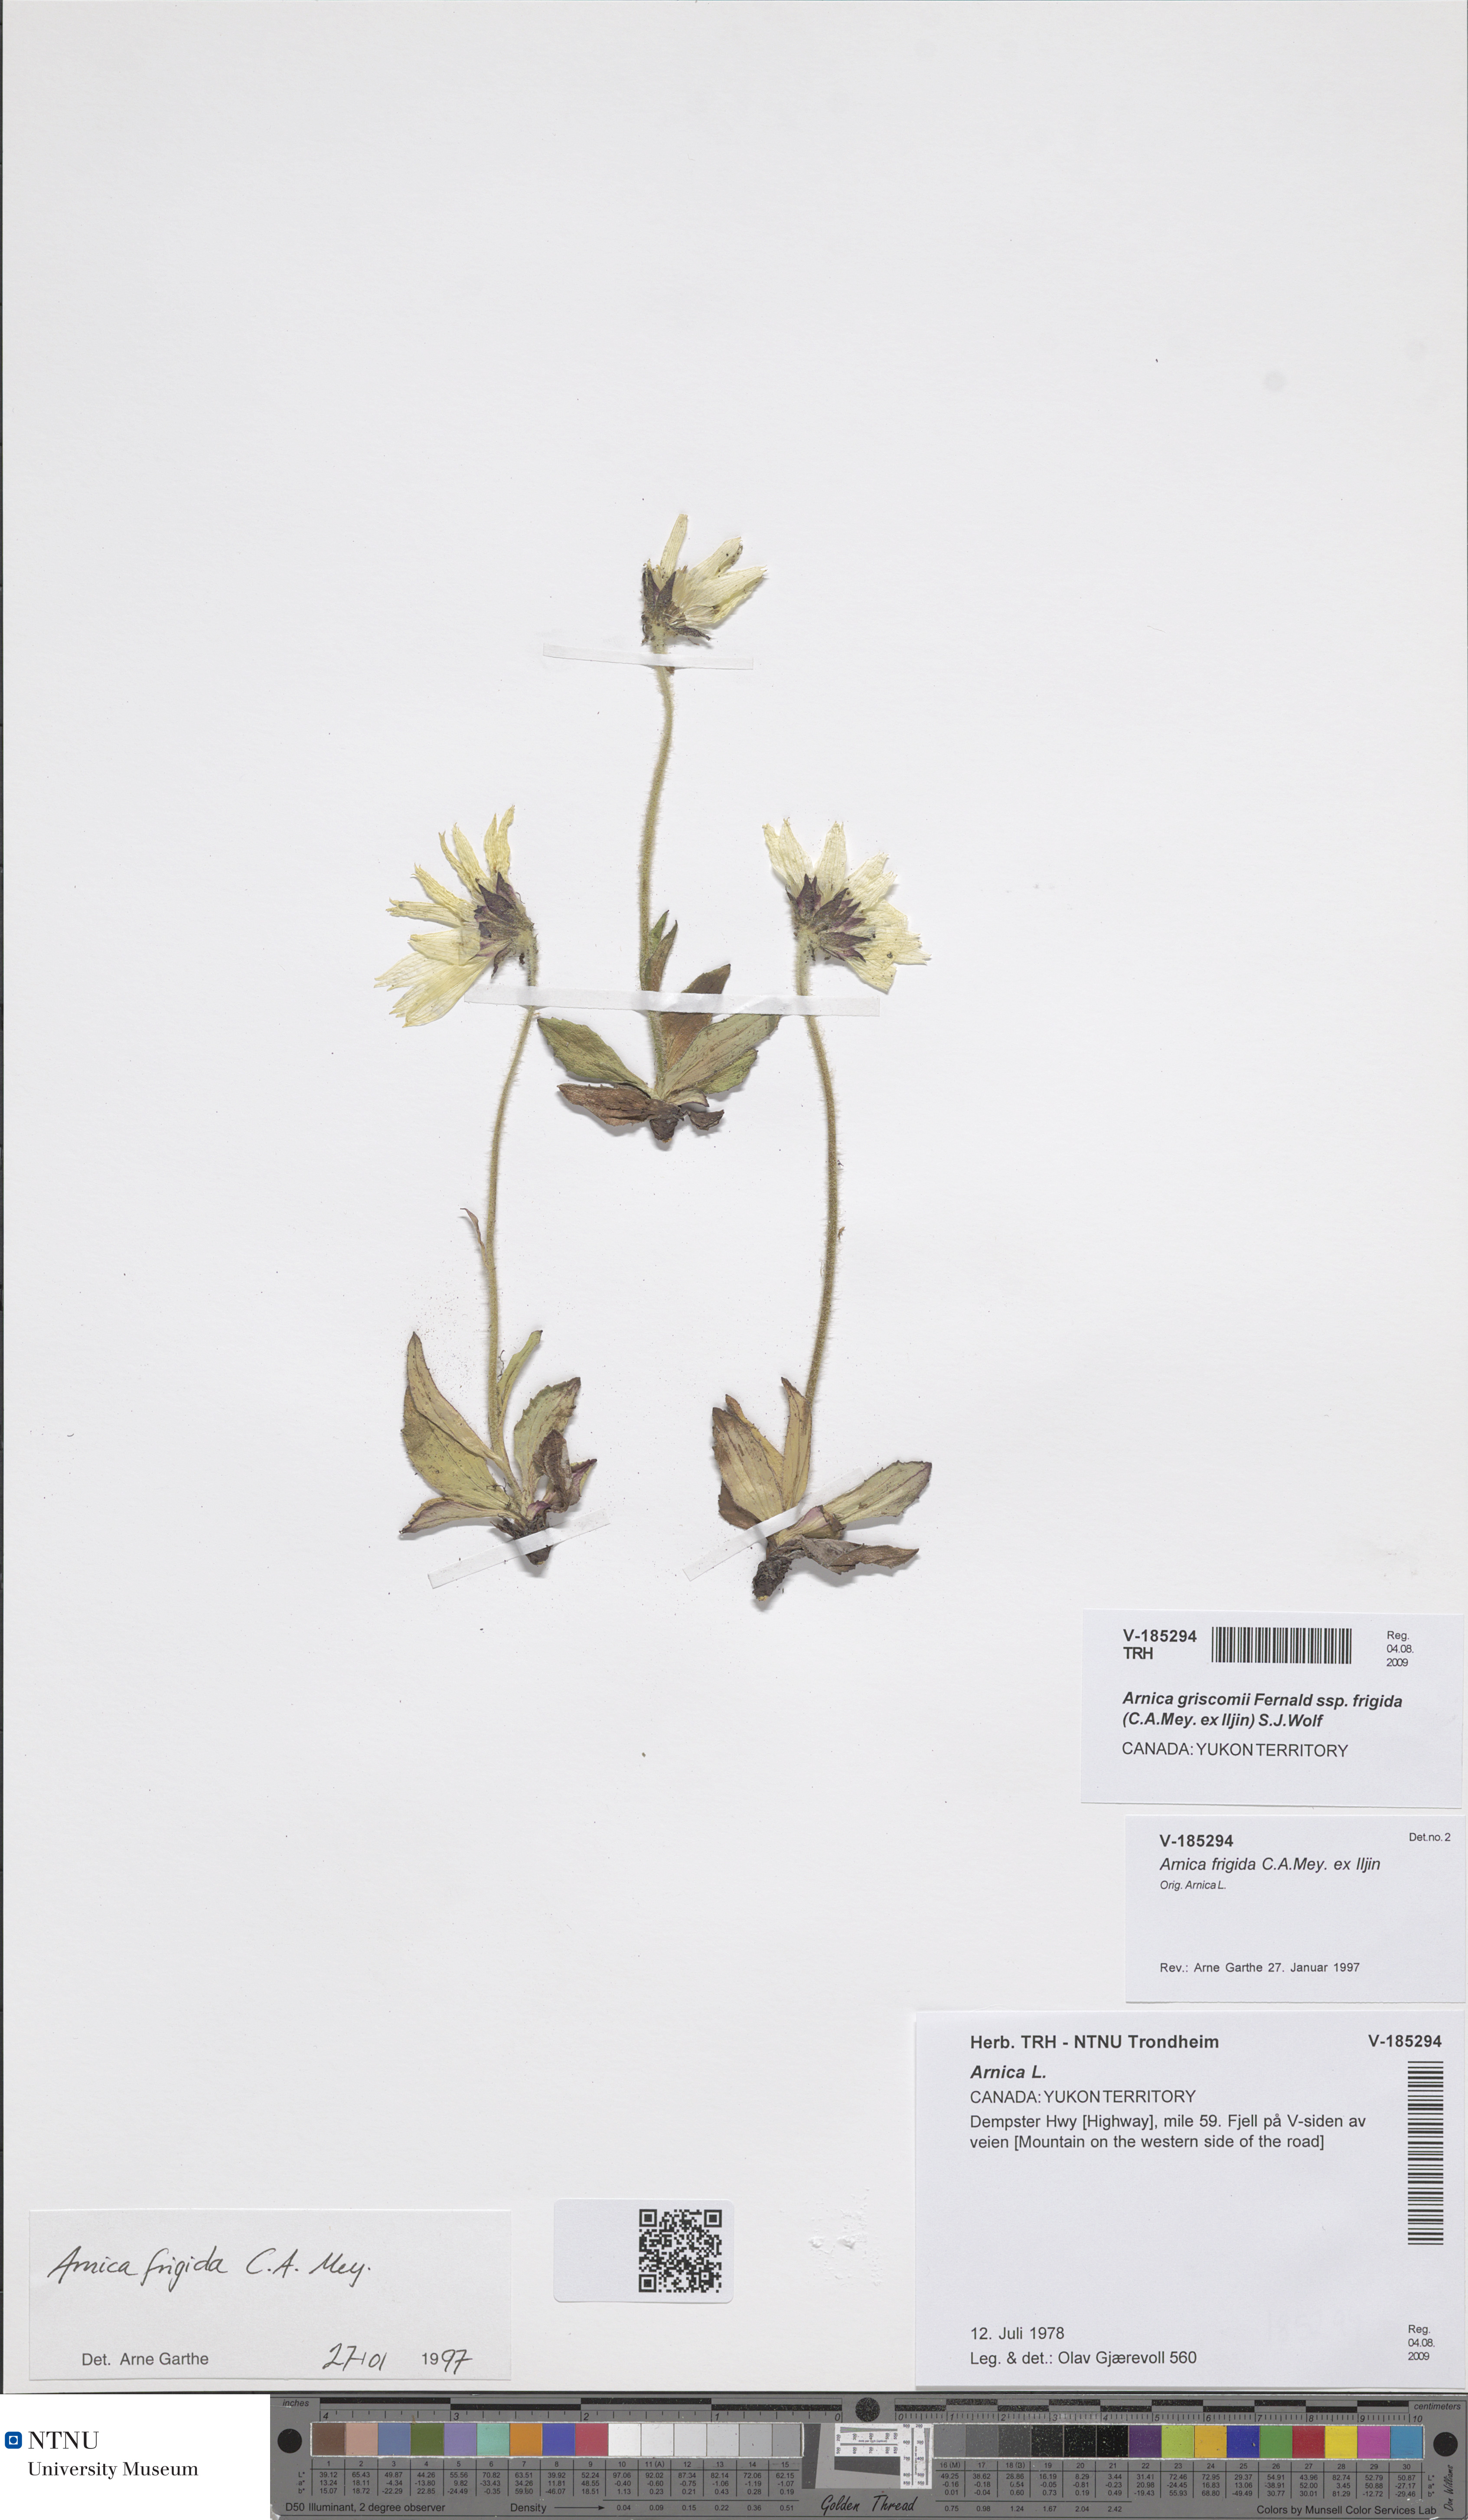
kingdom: Plantae
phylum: Tracheophyta
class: Magnoliopsida
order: Asterales
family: Asteraceae
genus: Arnica
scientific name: Arnica griscomii
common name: Snow arnica
